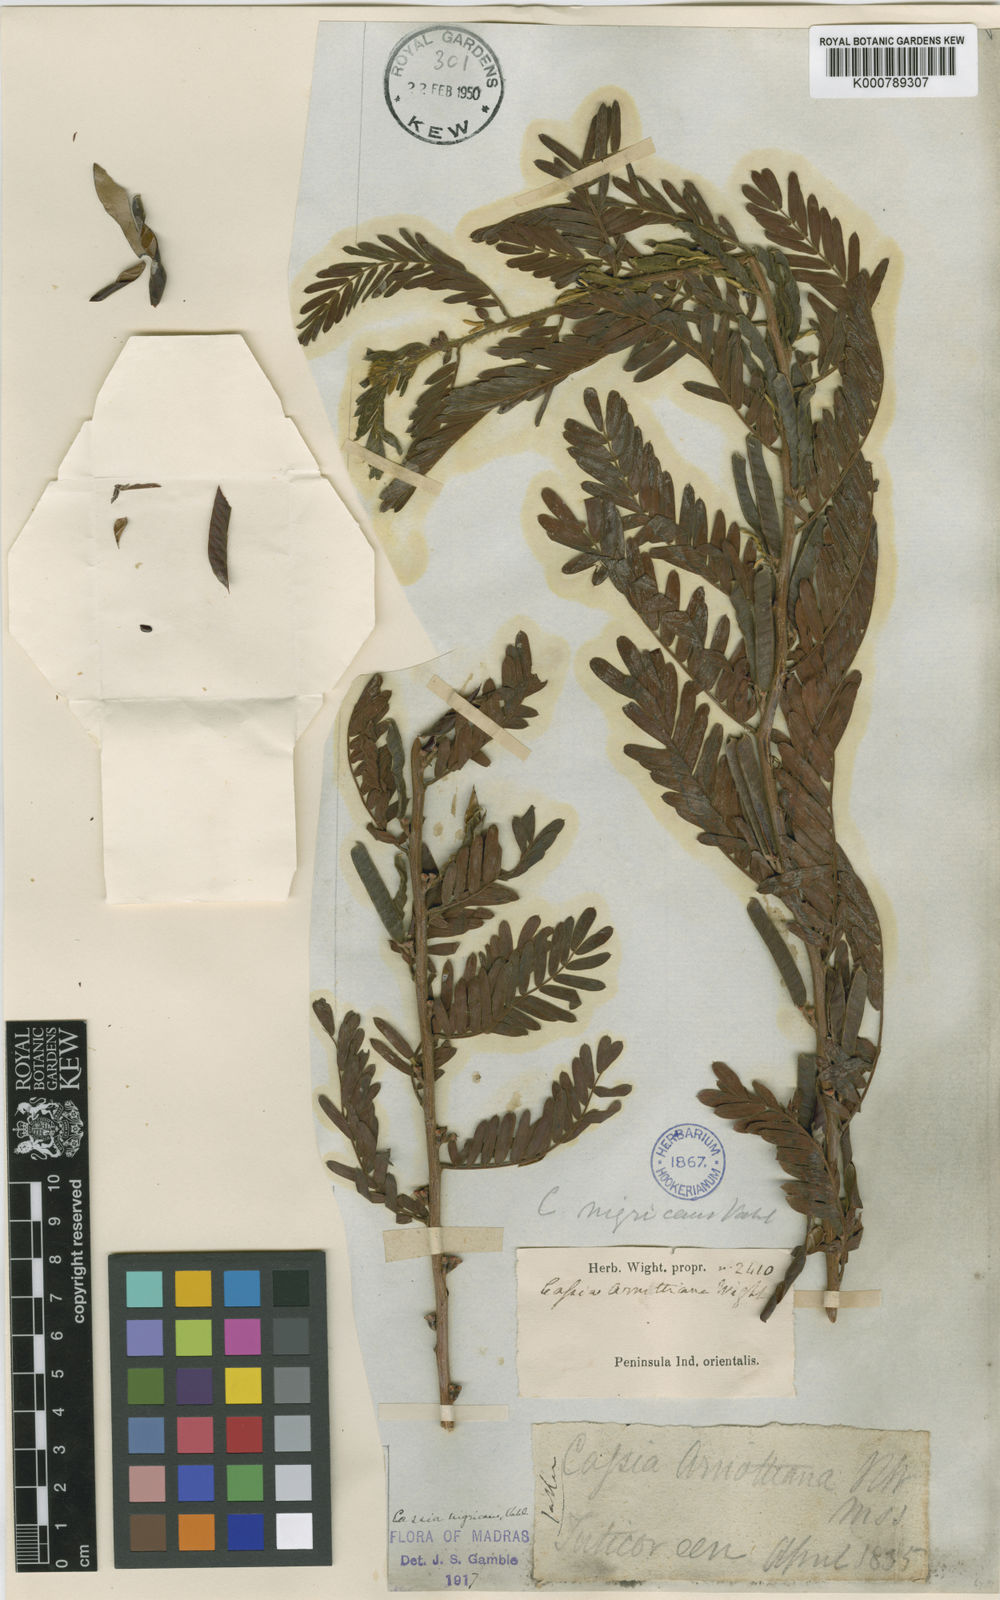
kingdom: Plantae
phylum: Tracheophyta
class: Magnoliopsida
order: Fabales
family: Fabaceae
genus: Chamaecrista
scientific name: Chamaecrista nigricans
